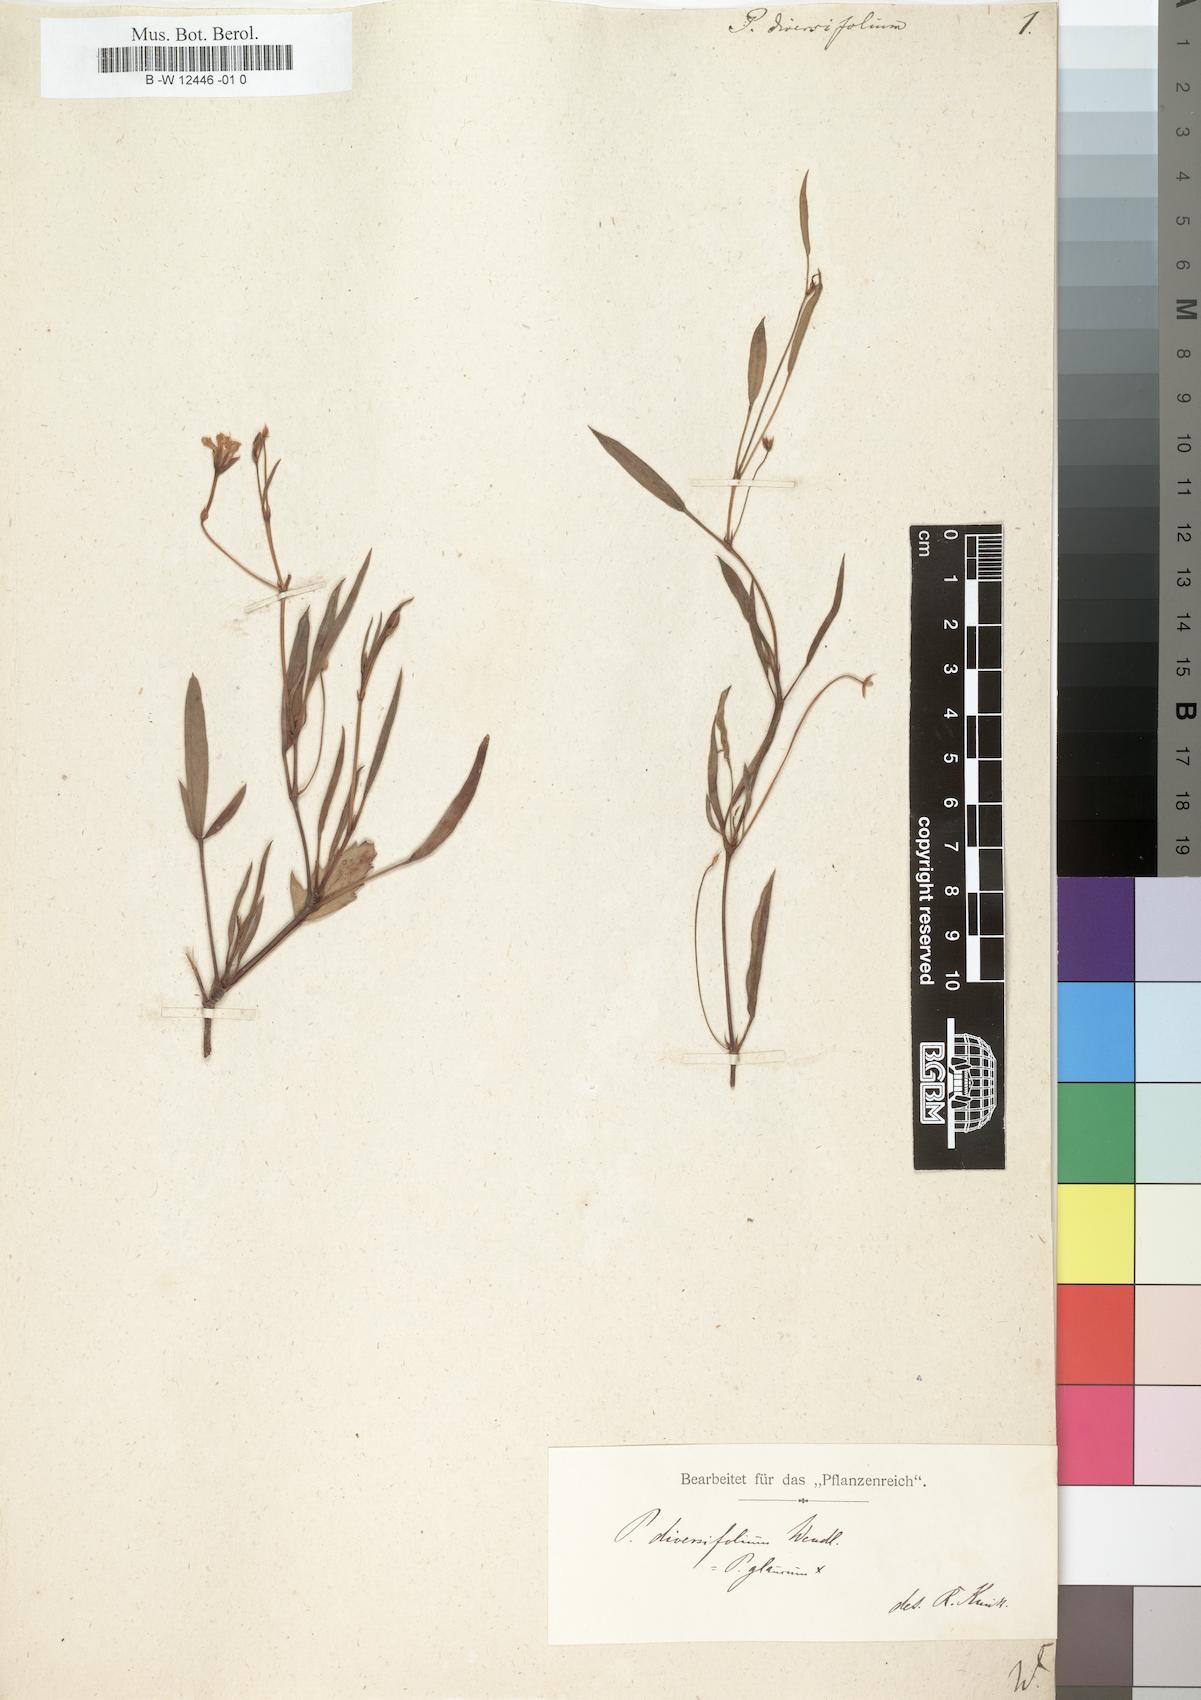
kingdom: Plantae
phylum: Tracheophyta
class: Magnoliopsida
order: Geraniales
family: Geraniaceae
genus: Pelargonium
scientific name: Pelargonium laevigatum
